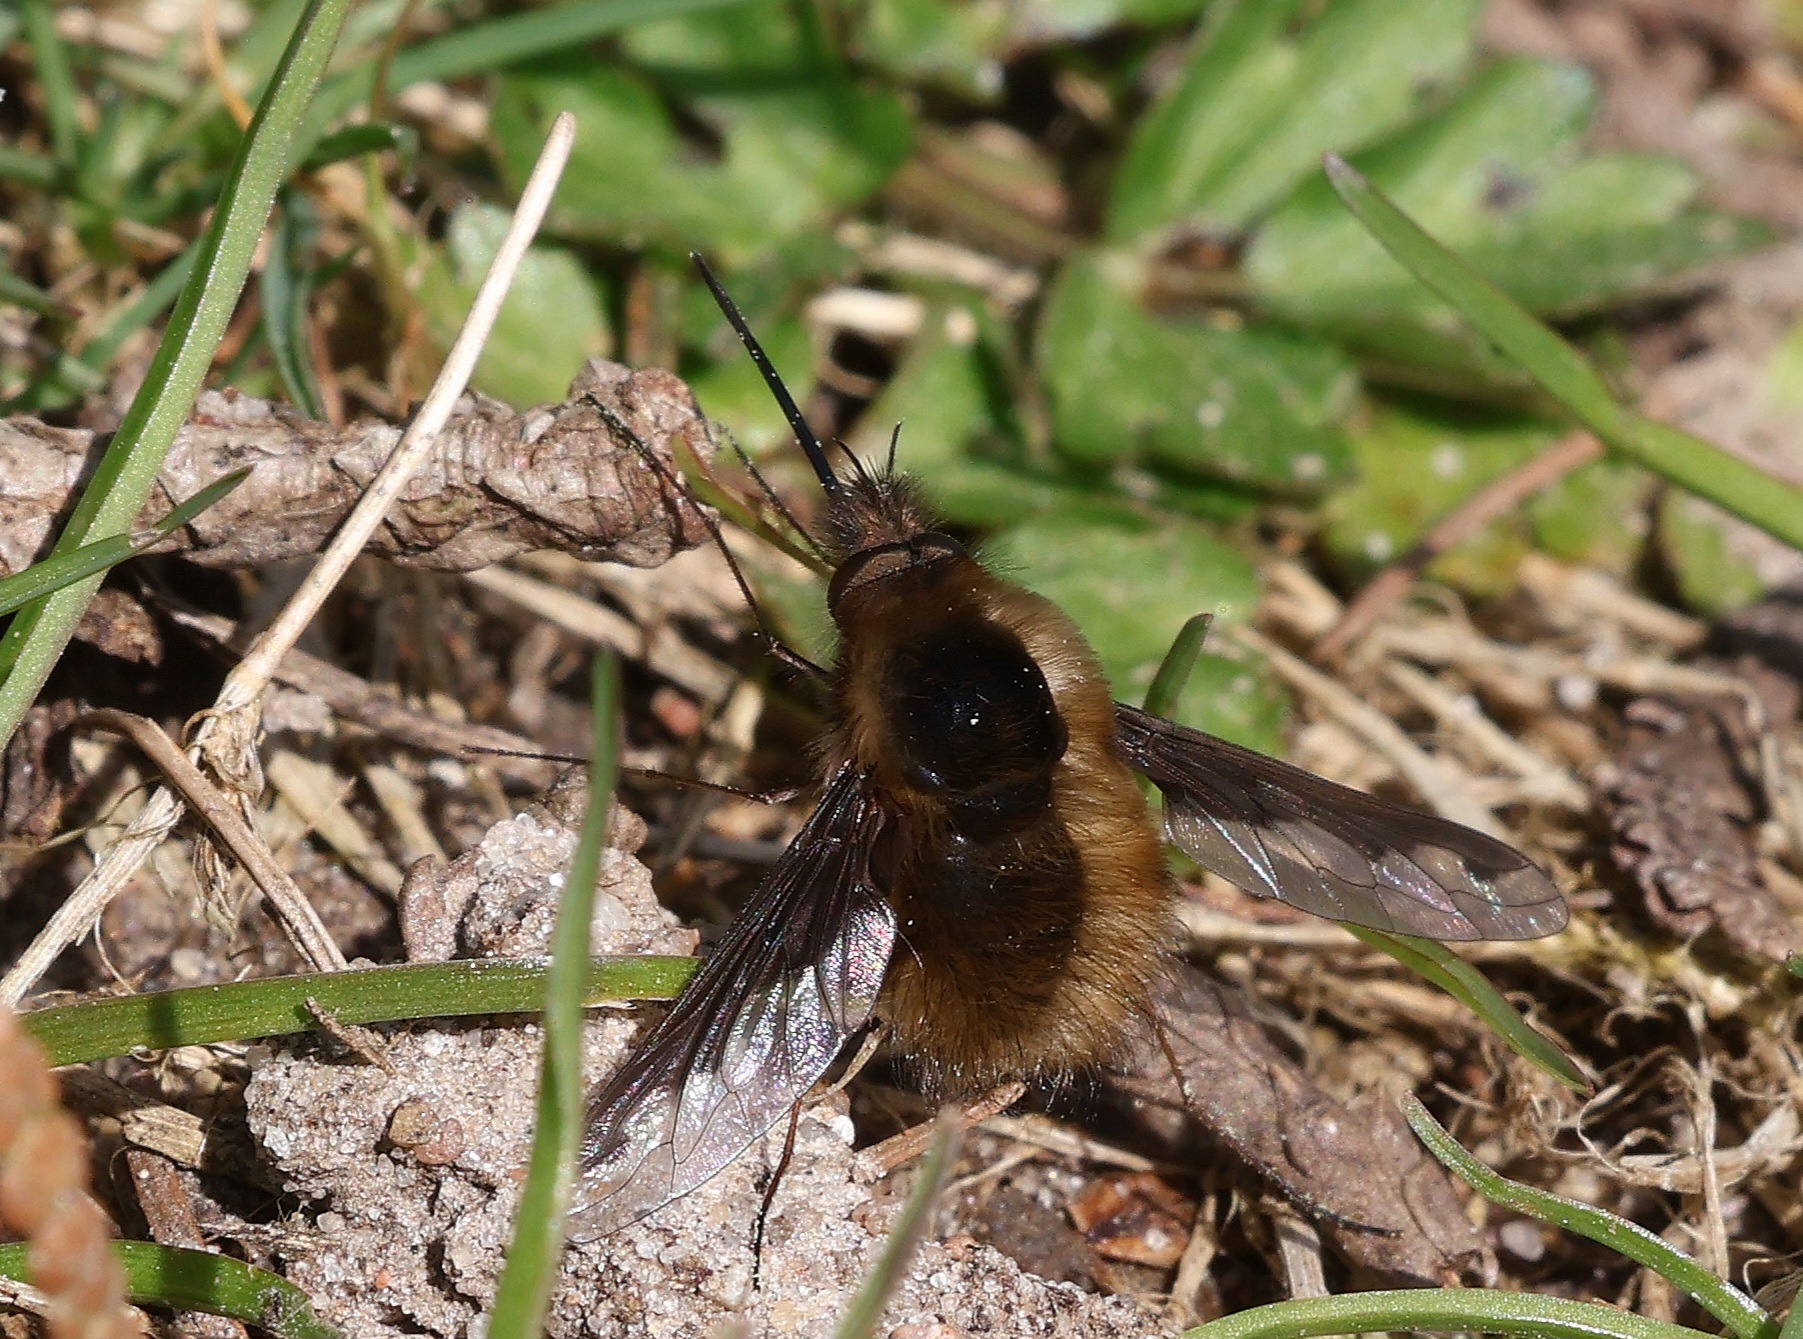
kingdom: Animalia
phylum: Arthropoda
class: Insecta
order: Diptera
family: Bombyliidae
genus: Bombylius
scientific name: Bombylius major
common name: Stor humleflue
